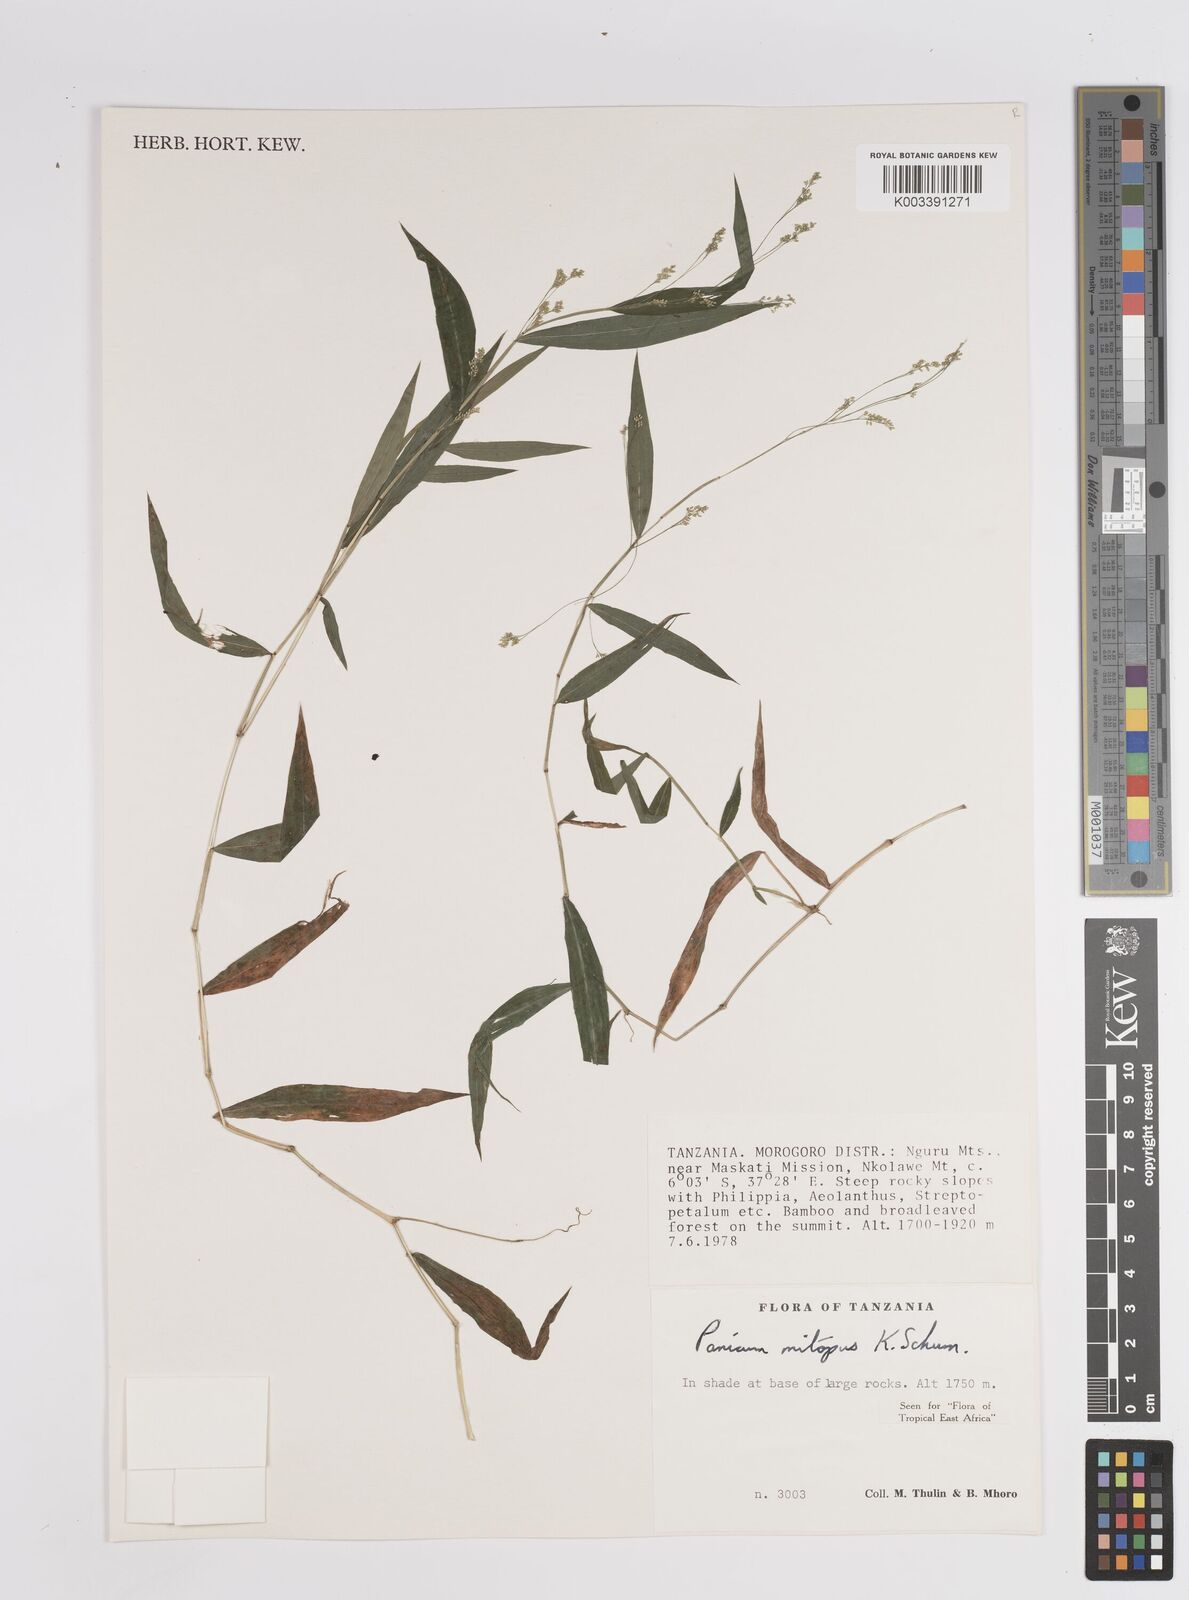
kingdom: Plantae
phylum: Tracheophyta
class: Liliopsida
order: Poales
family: Poaceae
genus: Panicum
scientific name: Panicum mitopus
